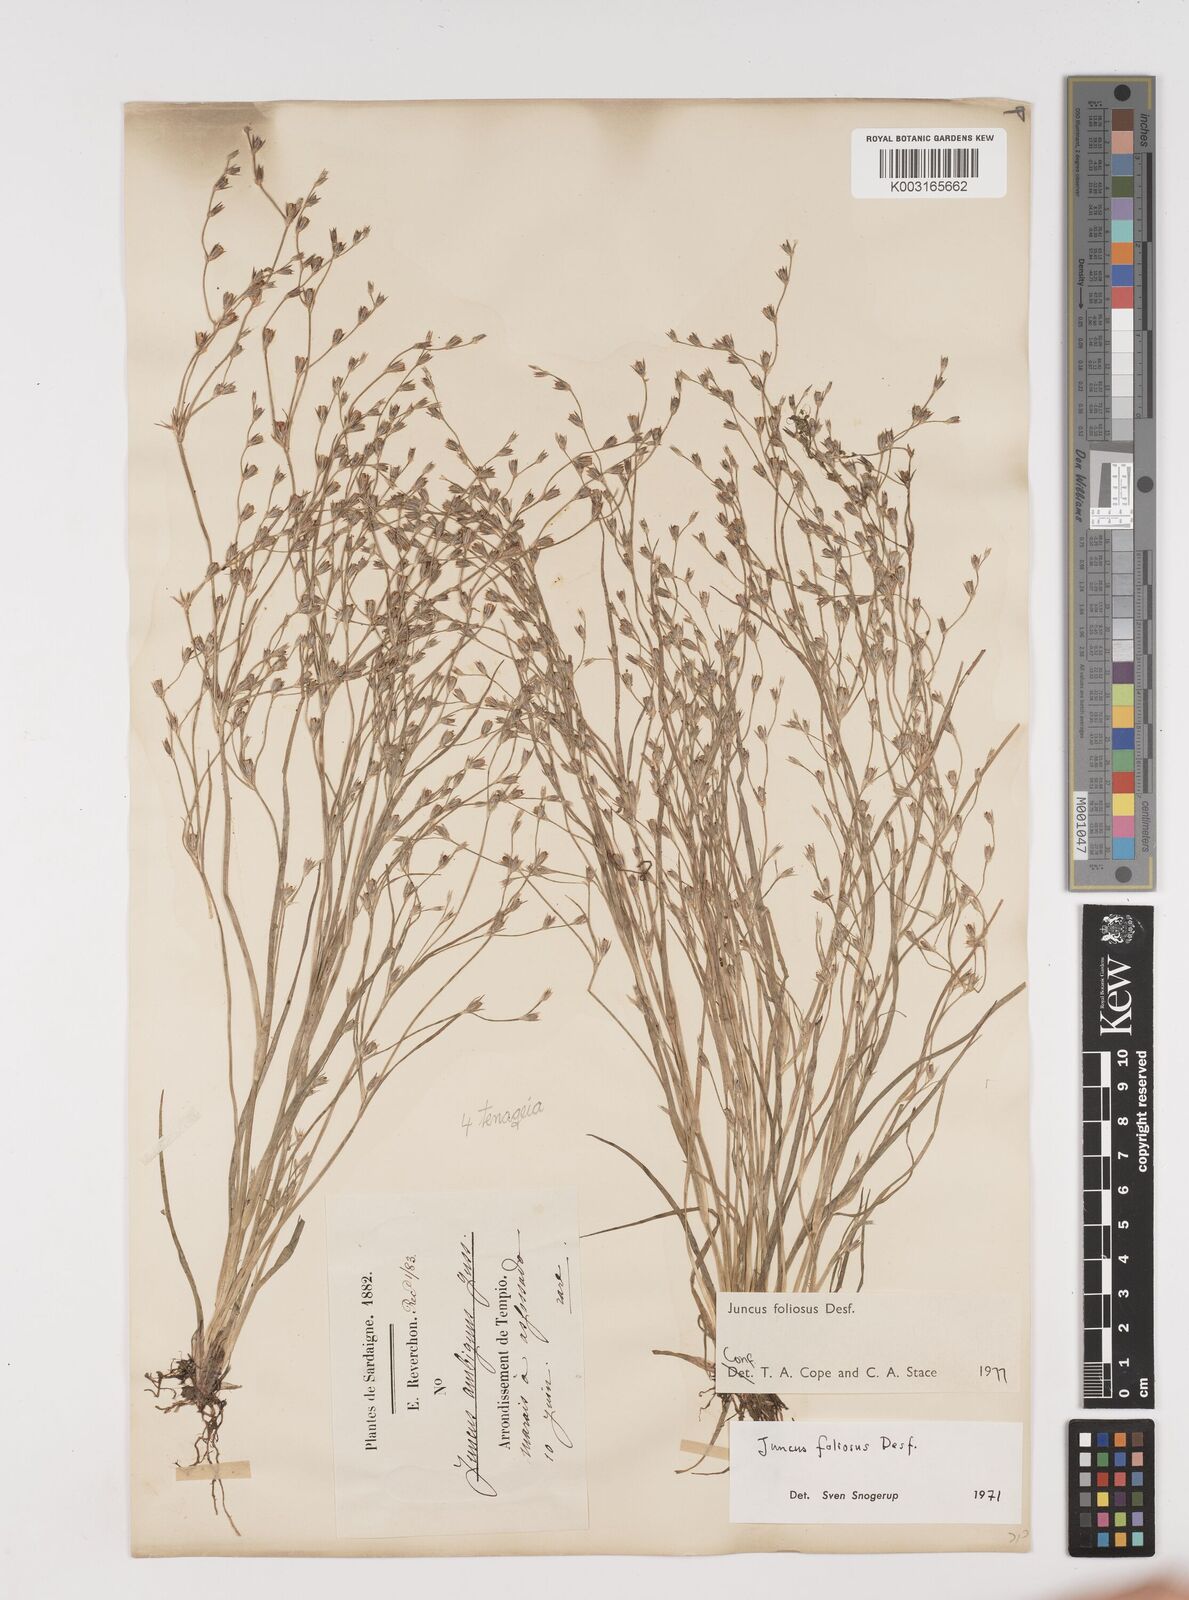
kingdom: Plantae
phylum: Tracheophyta
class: Liliopsida
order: Poales
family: Juncaceae
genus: Juncus
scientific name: Juncus foliosus
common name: Leafy rush
